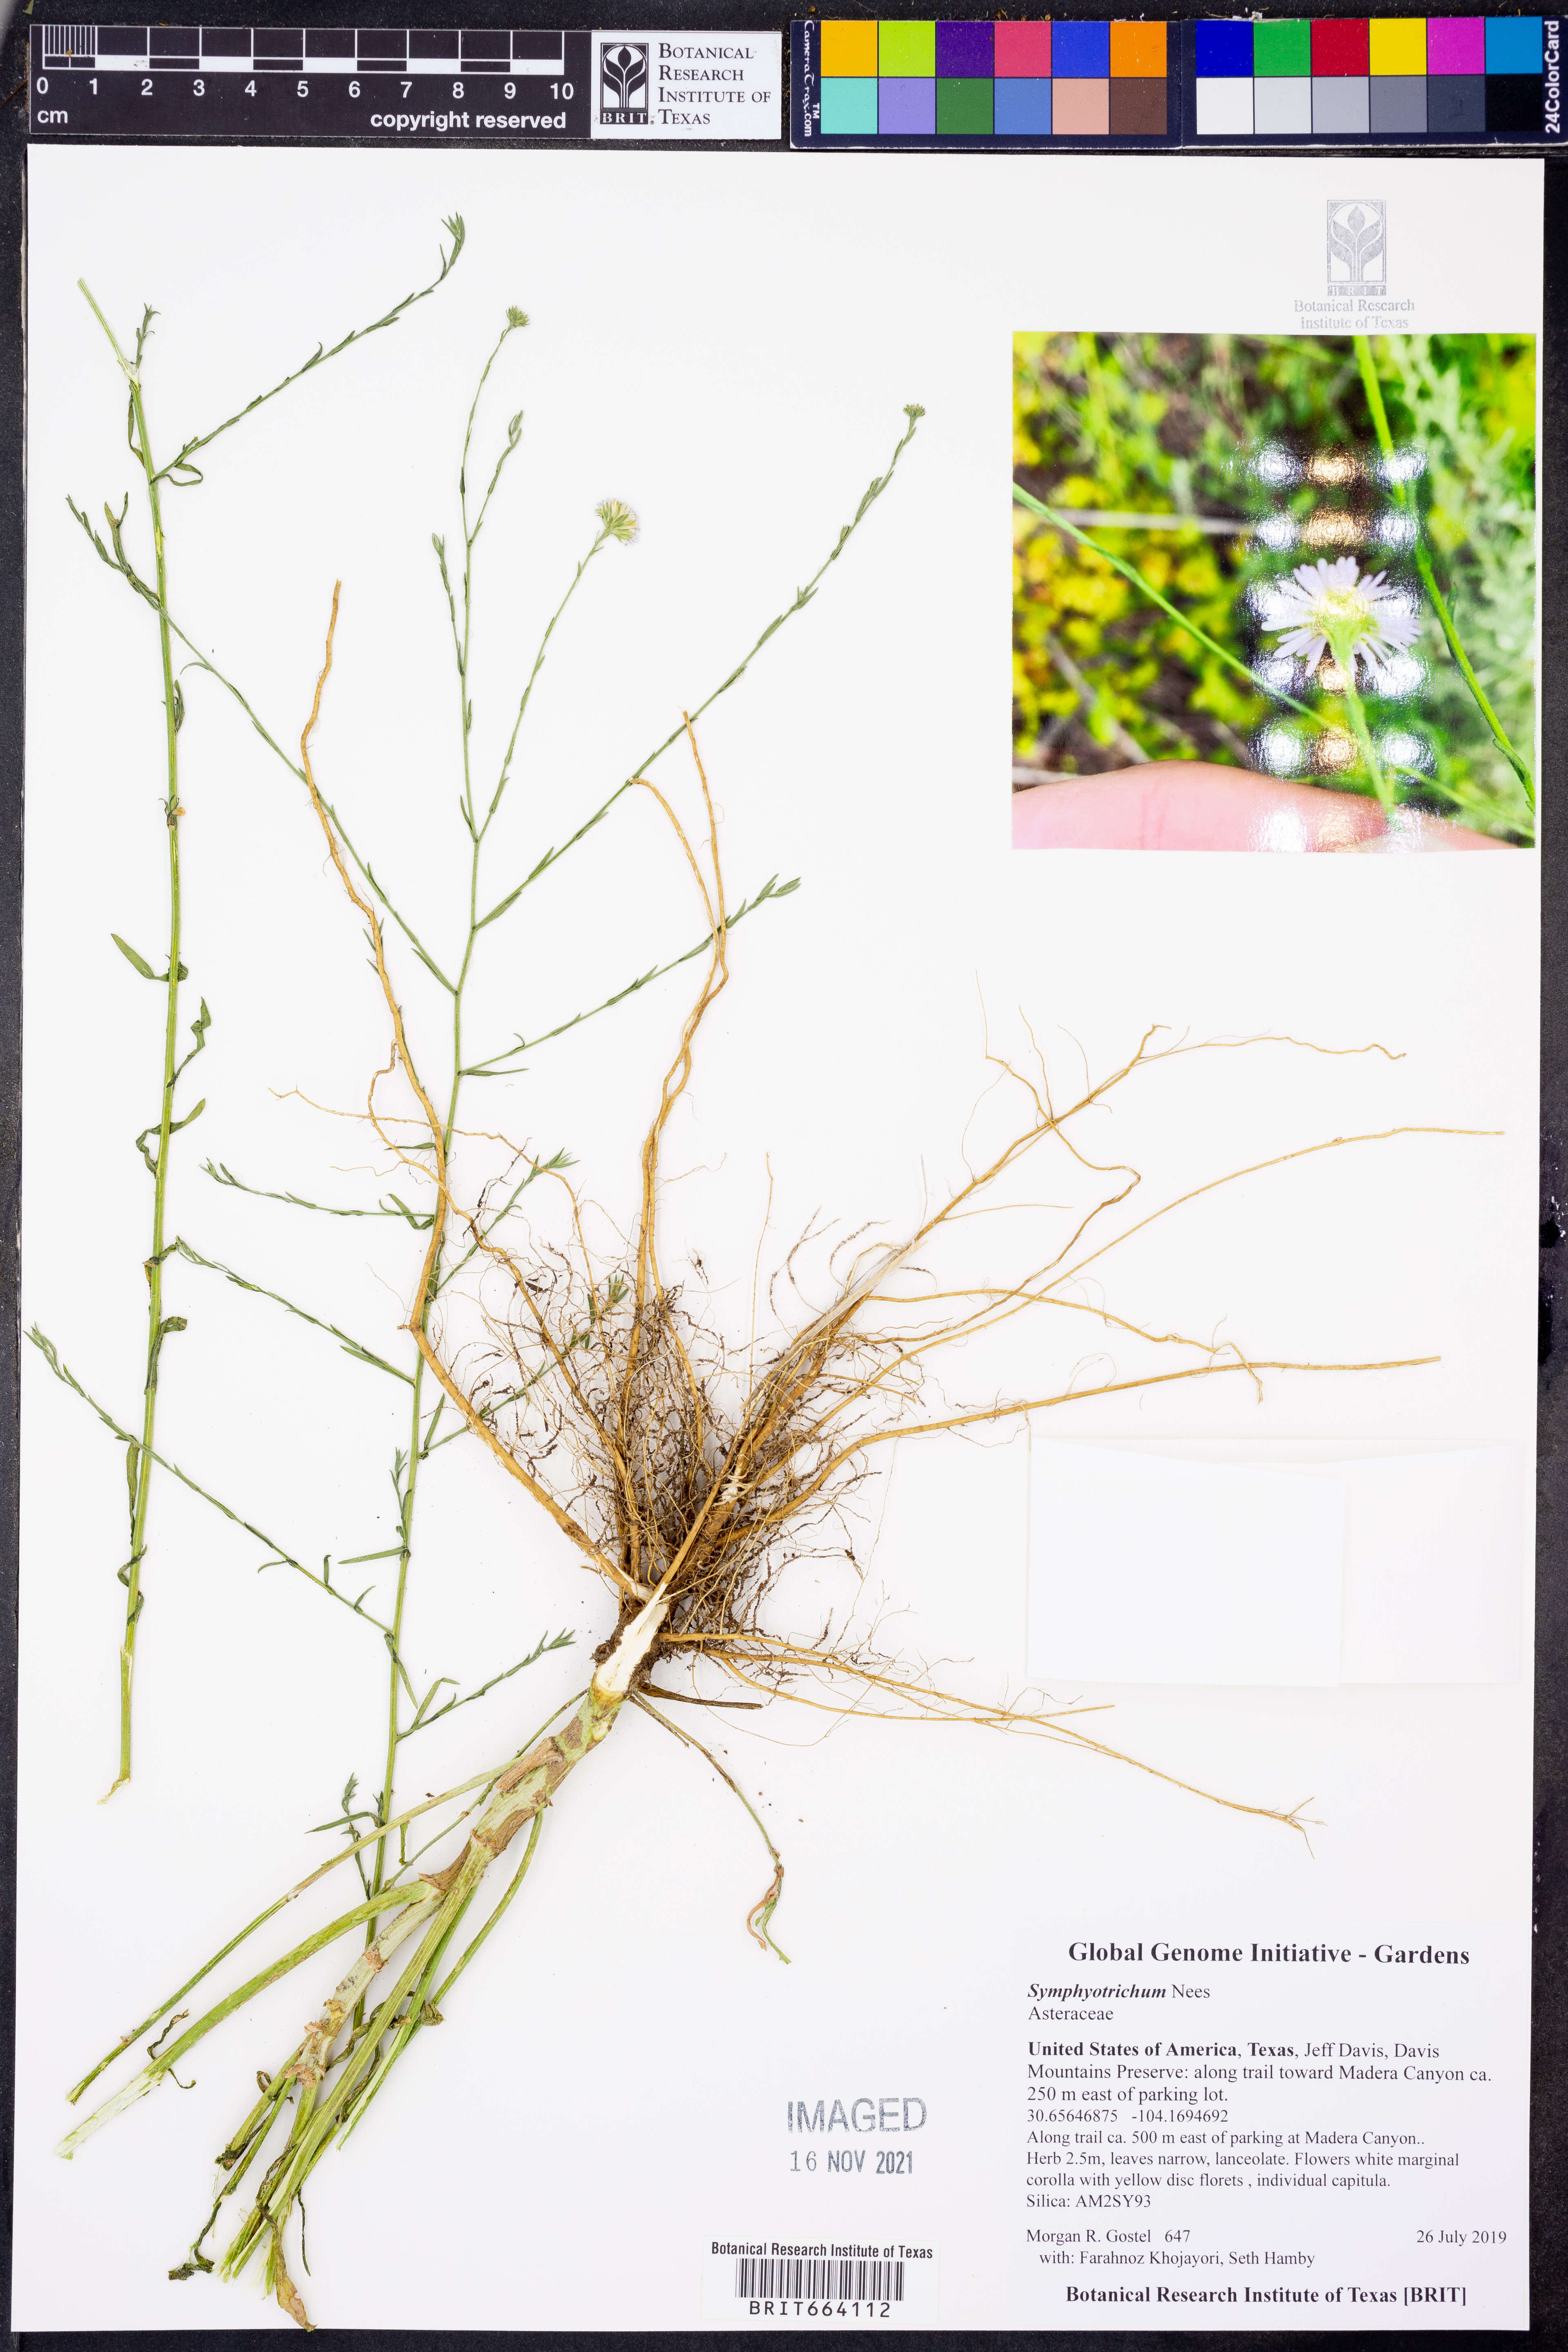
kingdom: Plantae
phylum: Tracheophyta
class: Magnoliopsida
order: Asterales
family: Asteraceae
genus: Symphyotrichum
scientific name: Symphyotrichum
